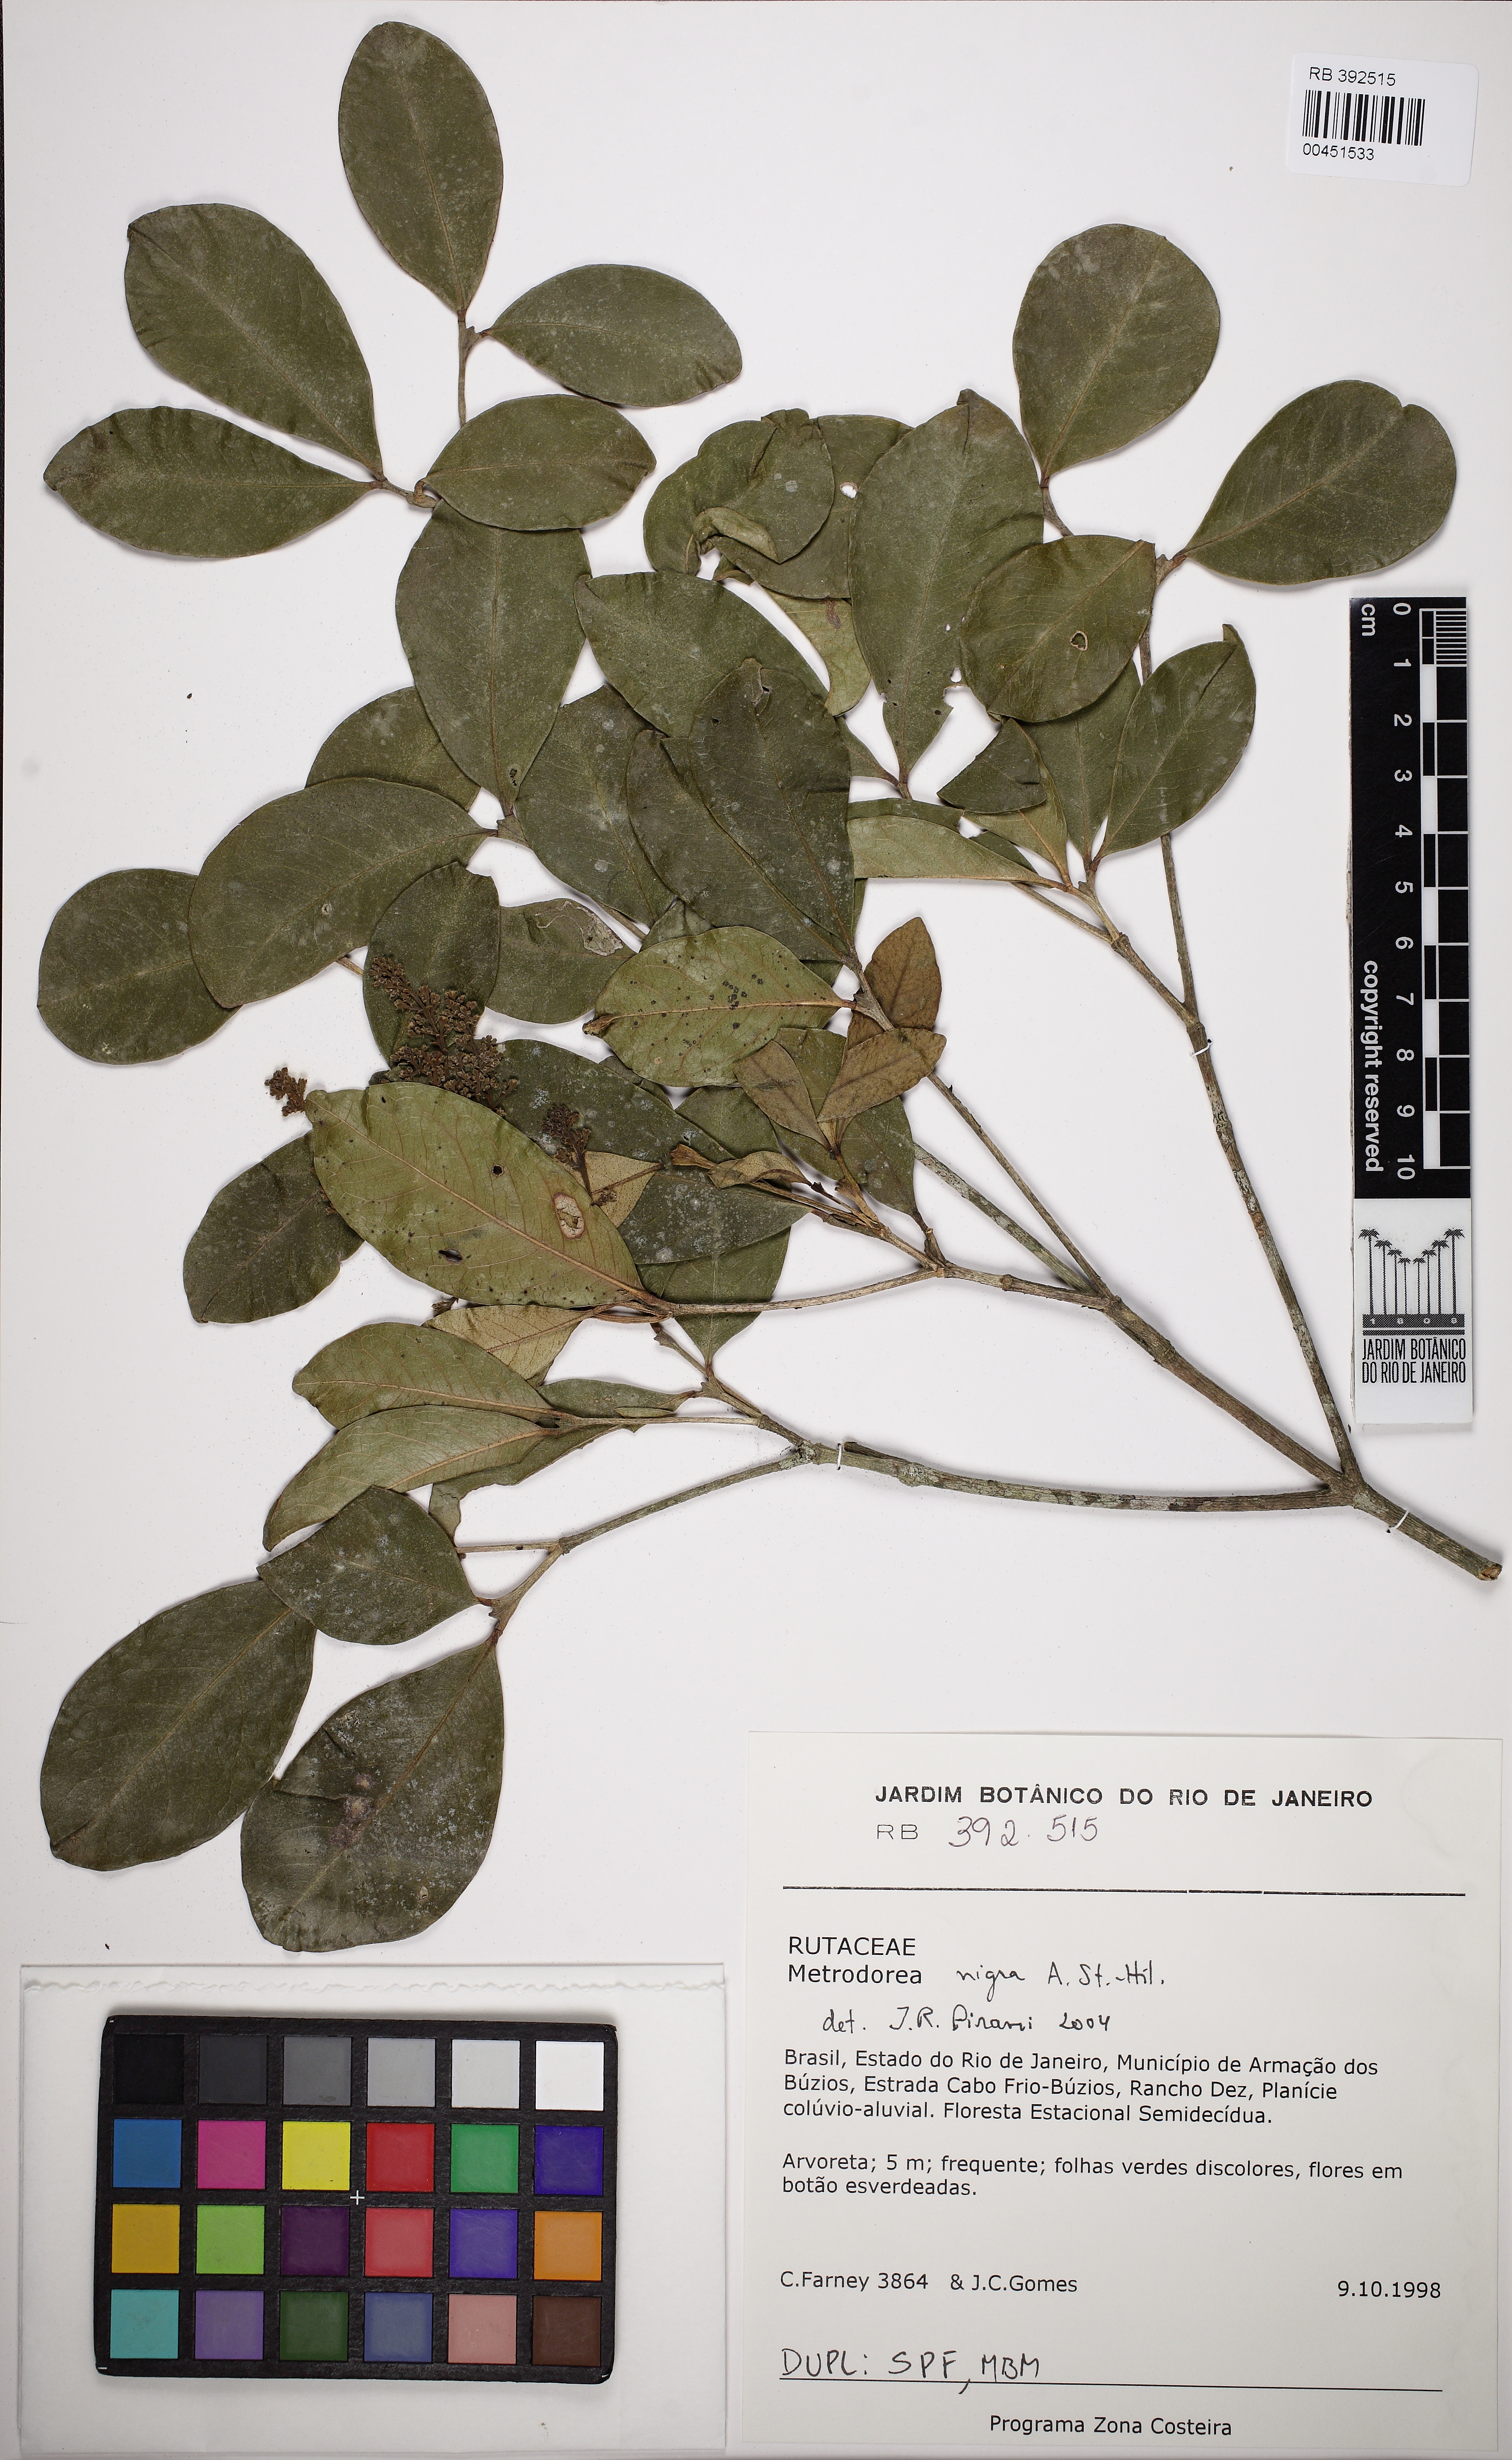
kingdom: Plantae
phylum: Tracheophyta
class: Magnoliopsida
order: Sapindales
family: Rutaceae
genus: Metrodorea
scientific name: Metrodorea nigra
